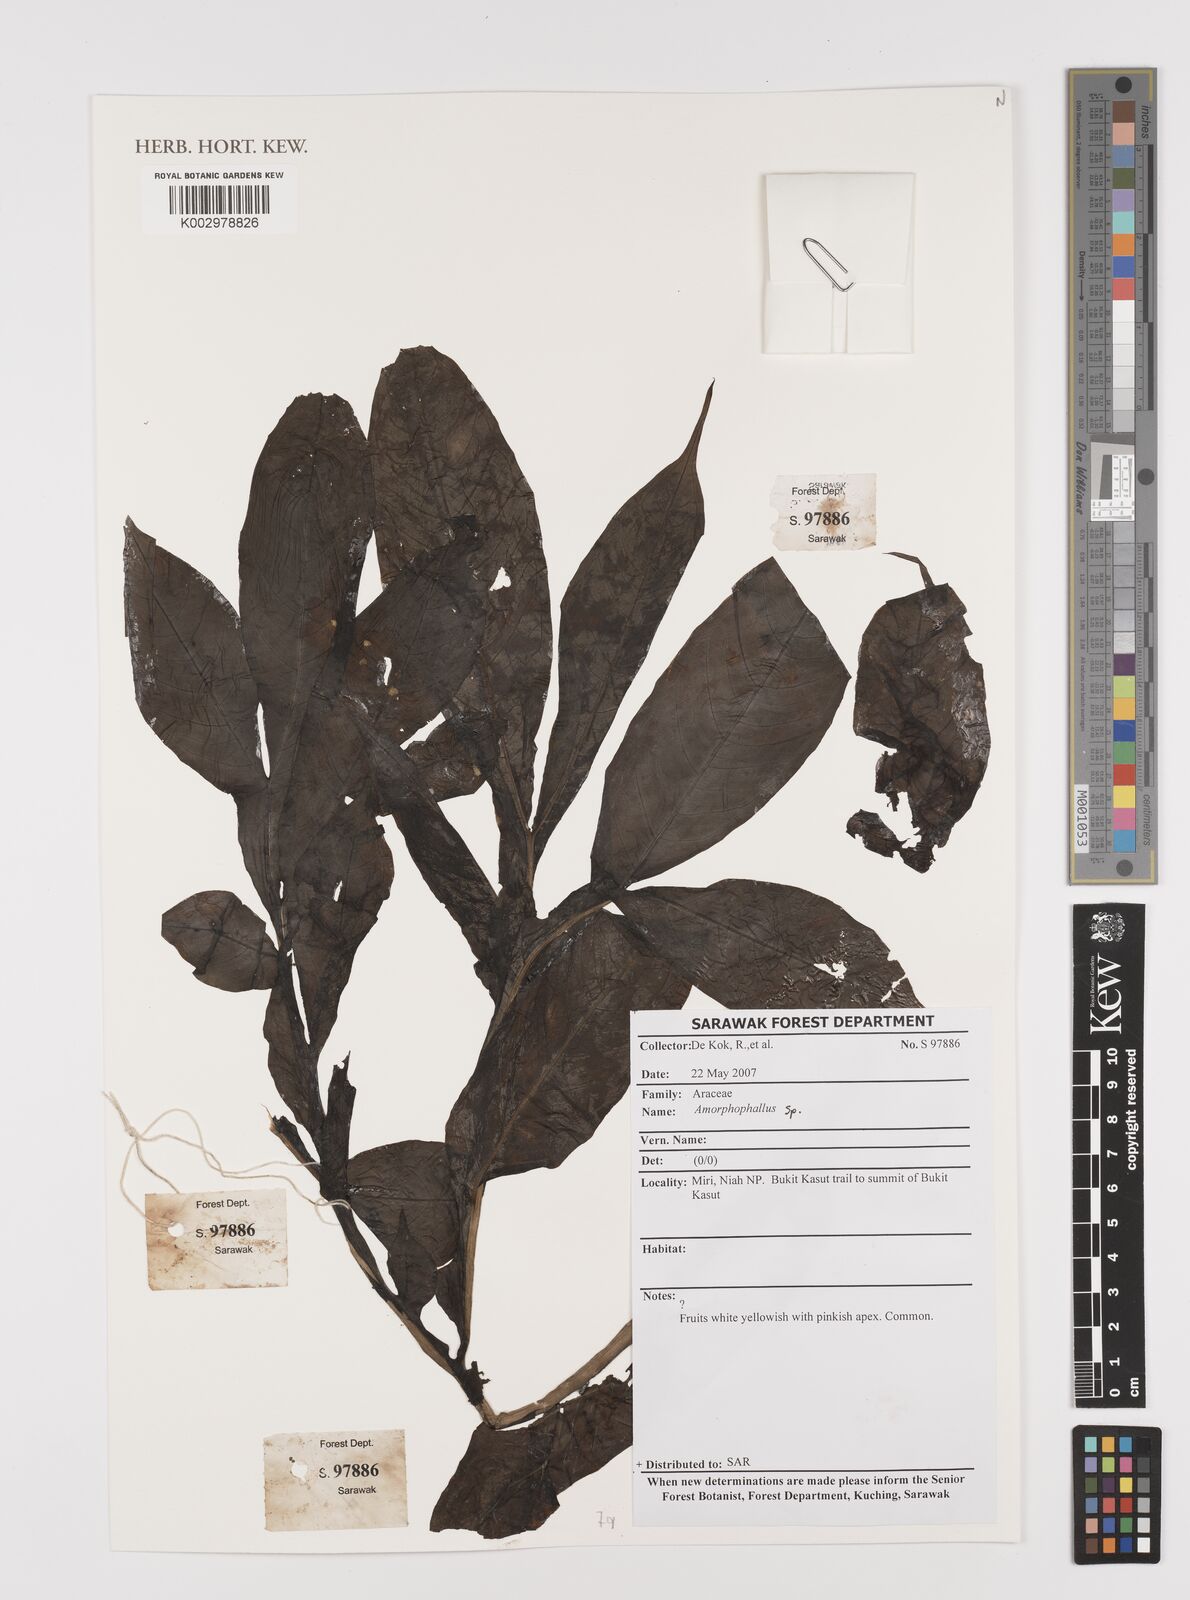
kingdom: Plantae
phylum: Tracheophyta
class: Liliopsida
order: Alismatales
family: Araceae
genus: Amorphophallus
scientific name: Amorphophallus
